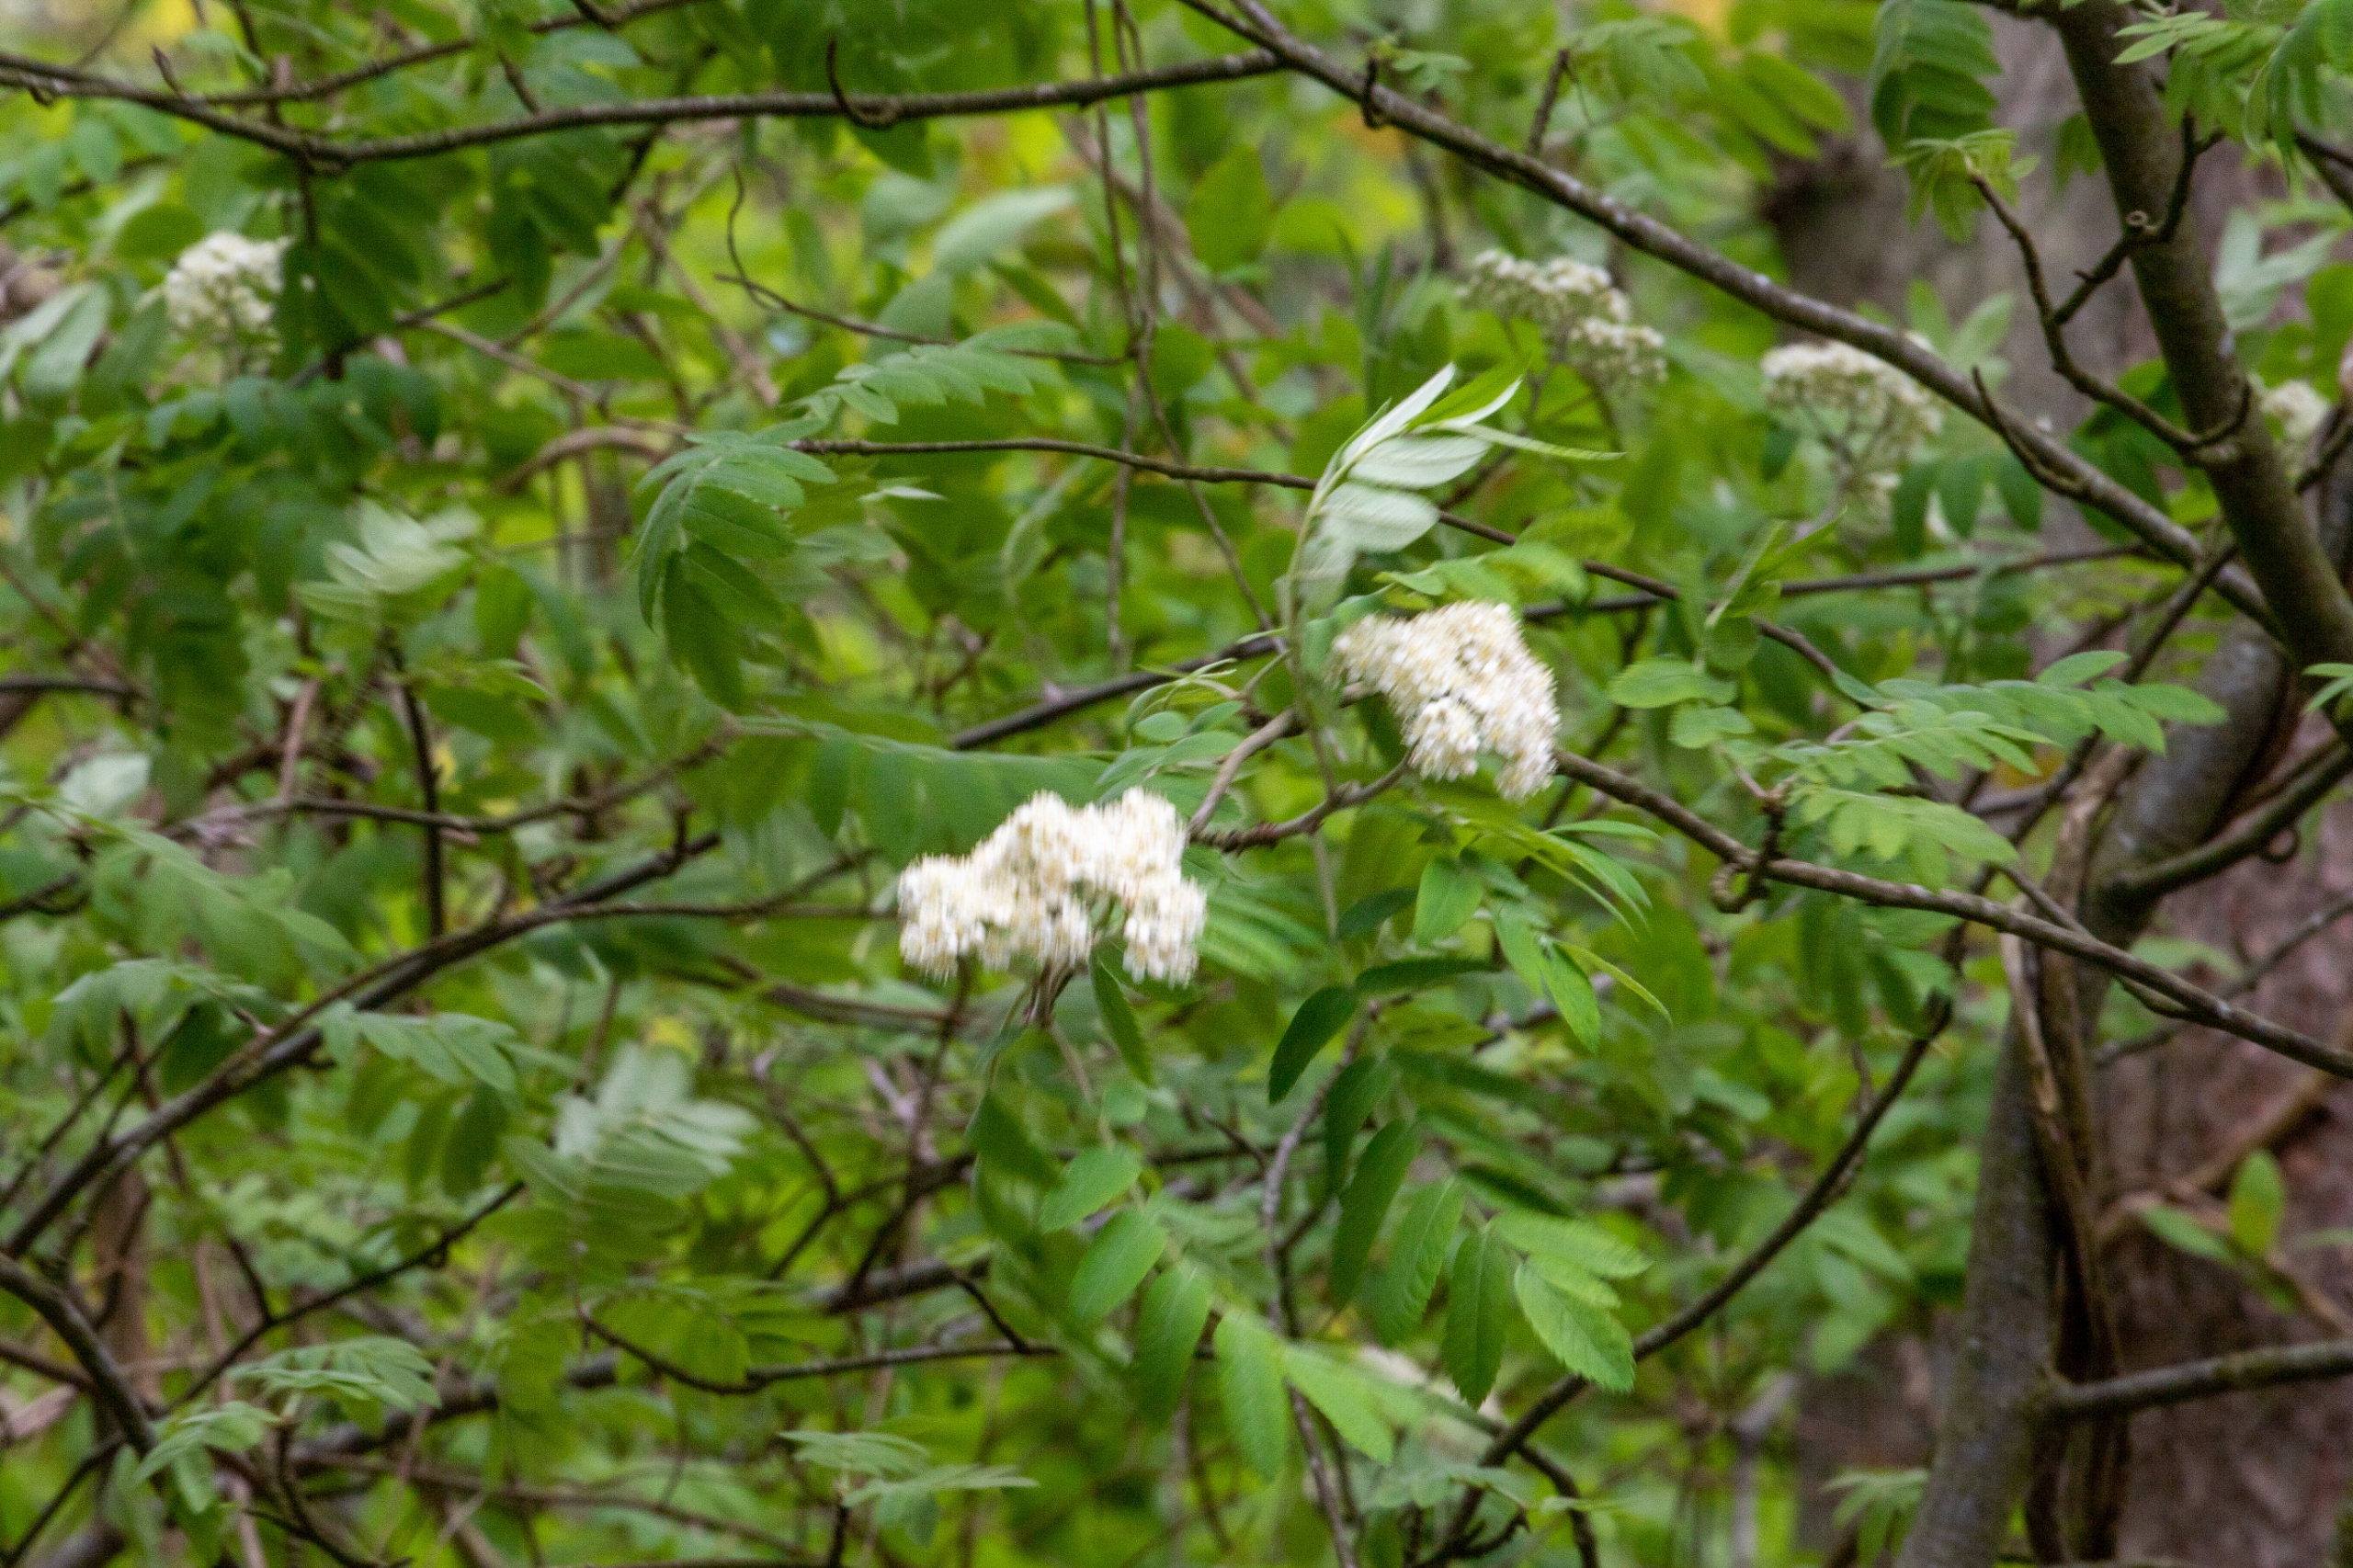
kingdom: Plantae
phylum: Tracheophyta
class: Magnoliopsida
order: Rosales
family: Rosaceae
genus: Sorbus
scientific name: Sorbus aucuparia
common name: Almindelig røn
